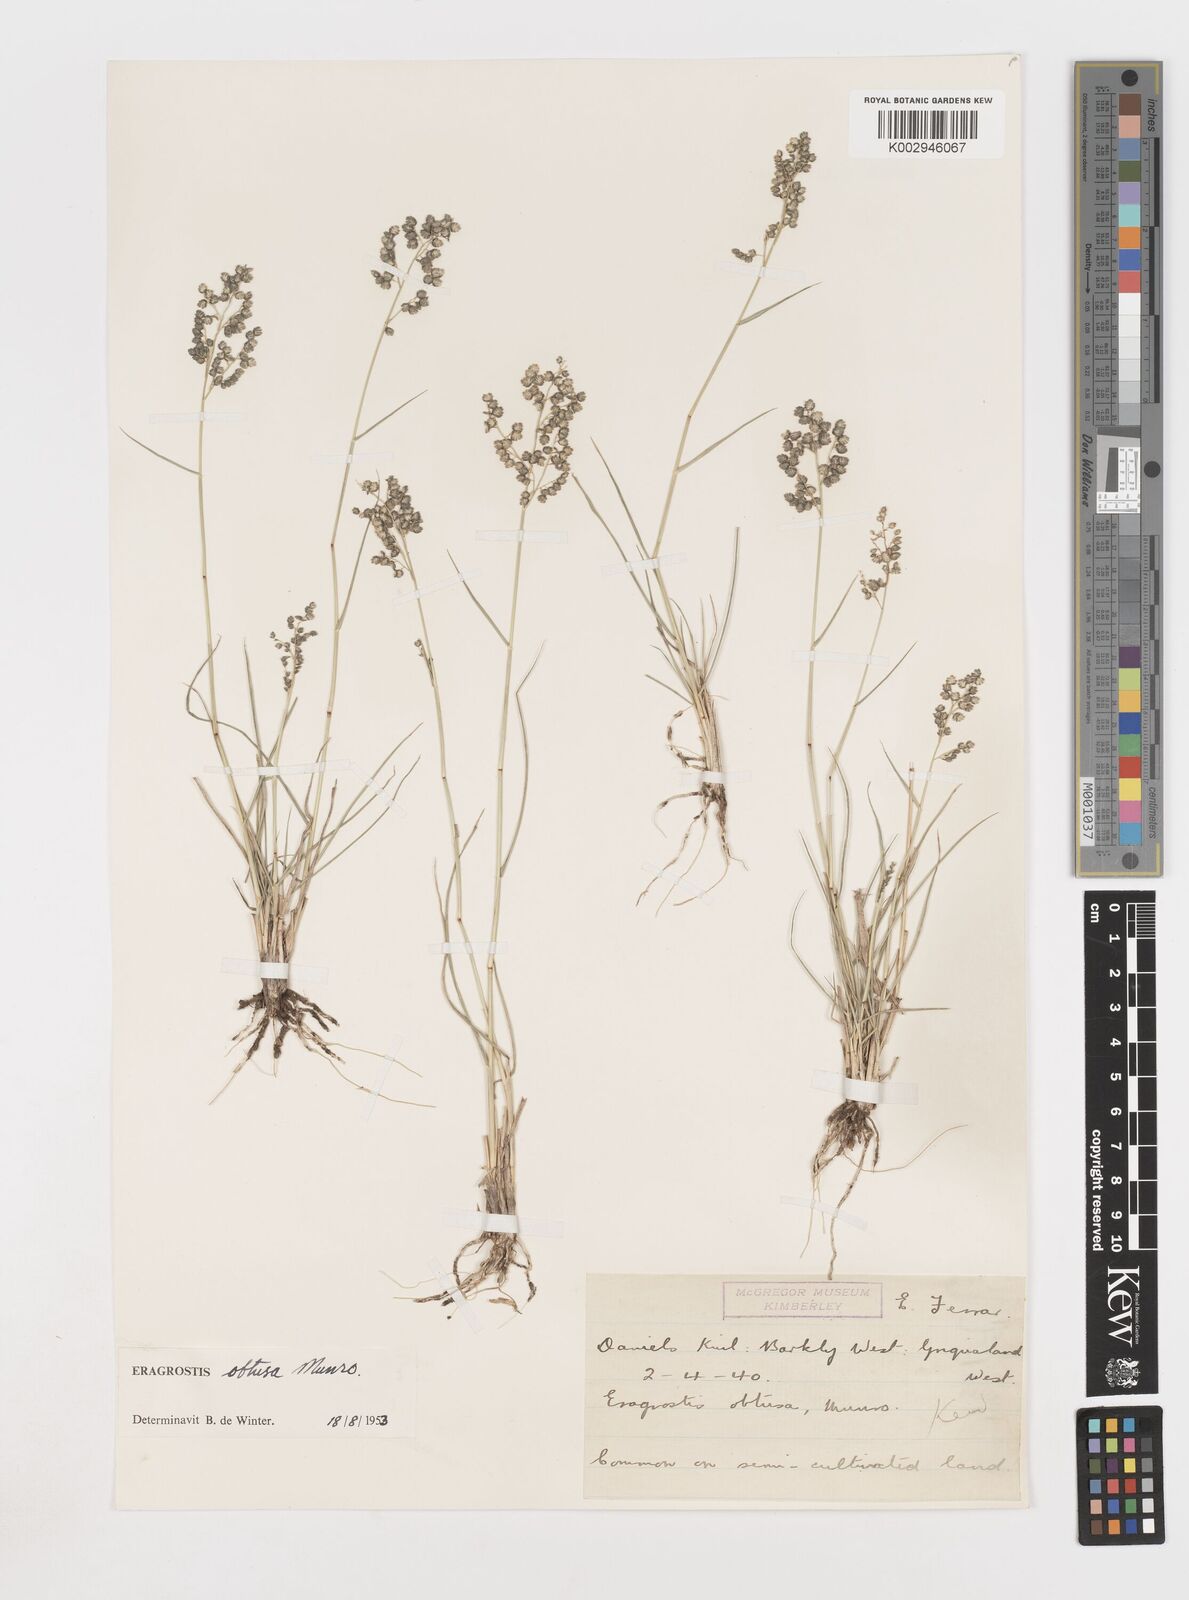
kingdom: Plantae
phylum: Tracheophyta
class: Liliopsida
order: Poales
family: Poaceae
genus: Eragrostis
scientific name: Eragrostis obtusa
